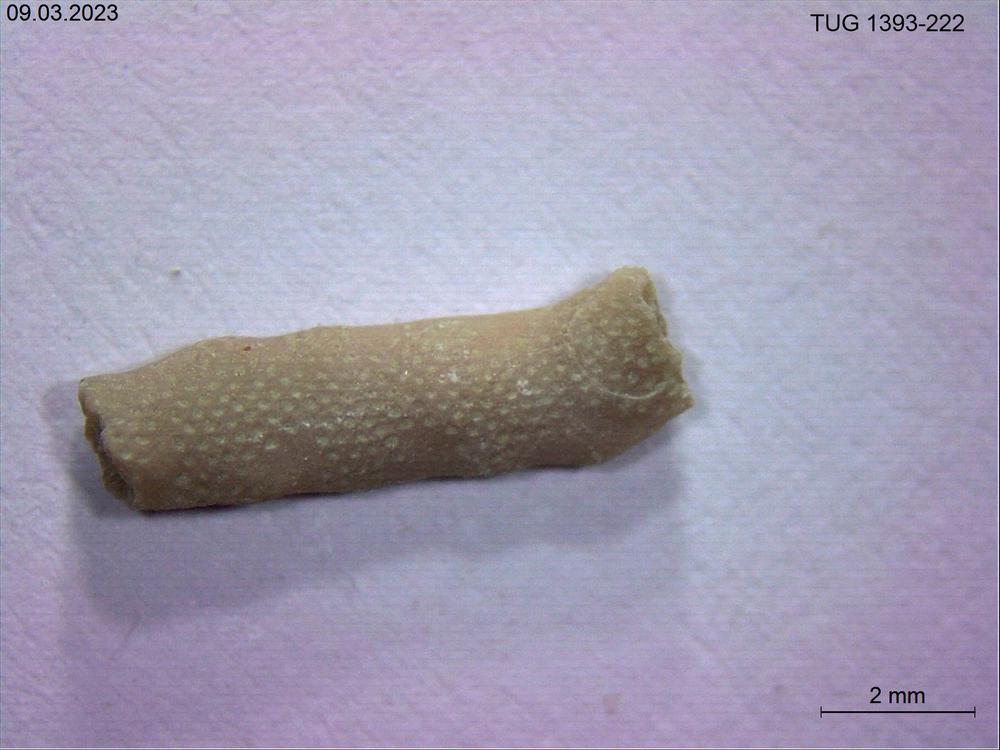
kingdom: Animalia
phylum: Bryozoa
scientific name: Bryozoa
